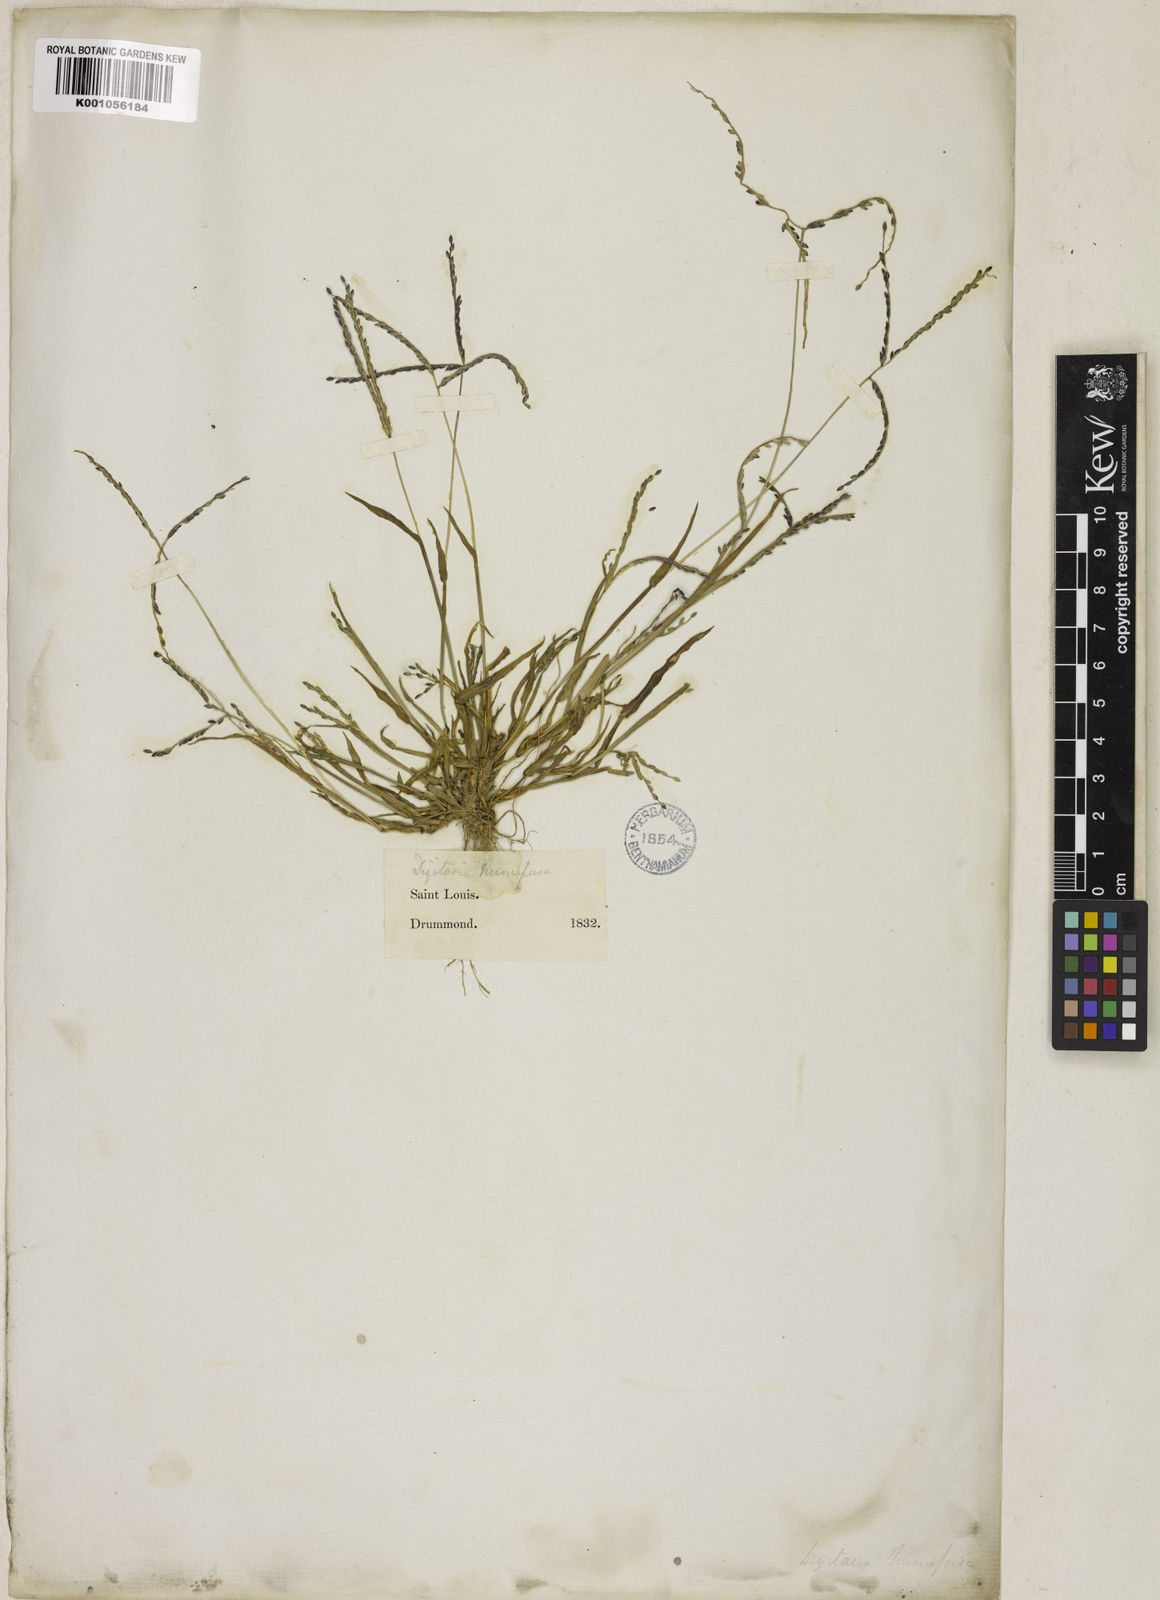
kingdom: Plantae
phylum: Tracheophyta
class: Liliopsida
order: Poales
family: Poaceae
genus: Digitaria
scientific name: Digitaria ischaemum
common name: Smooth crabgrass
